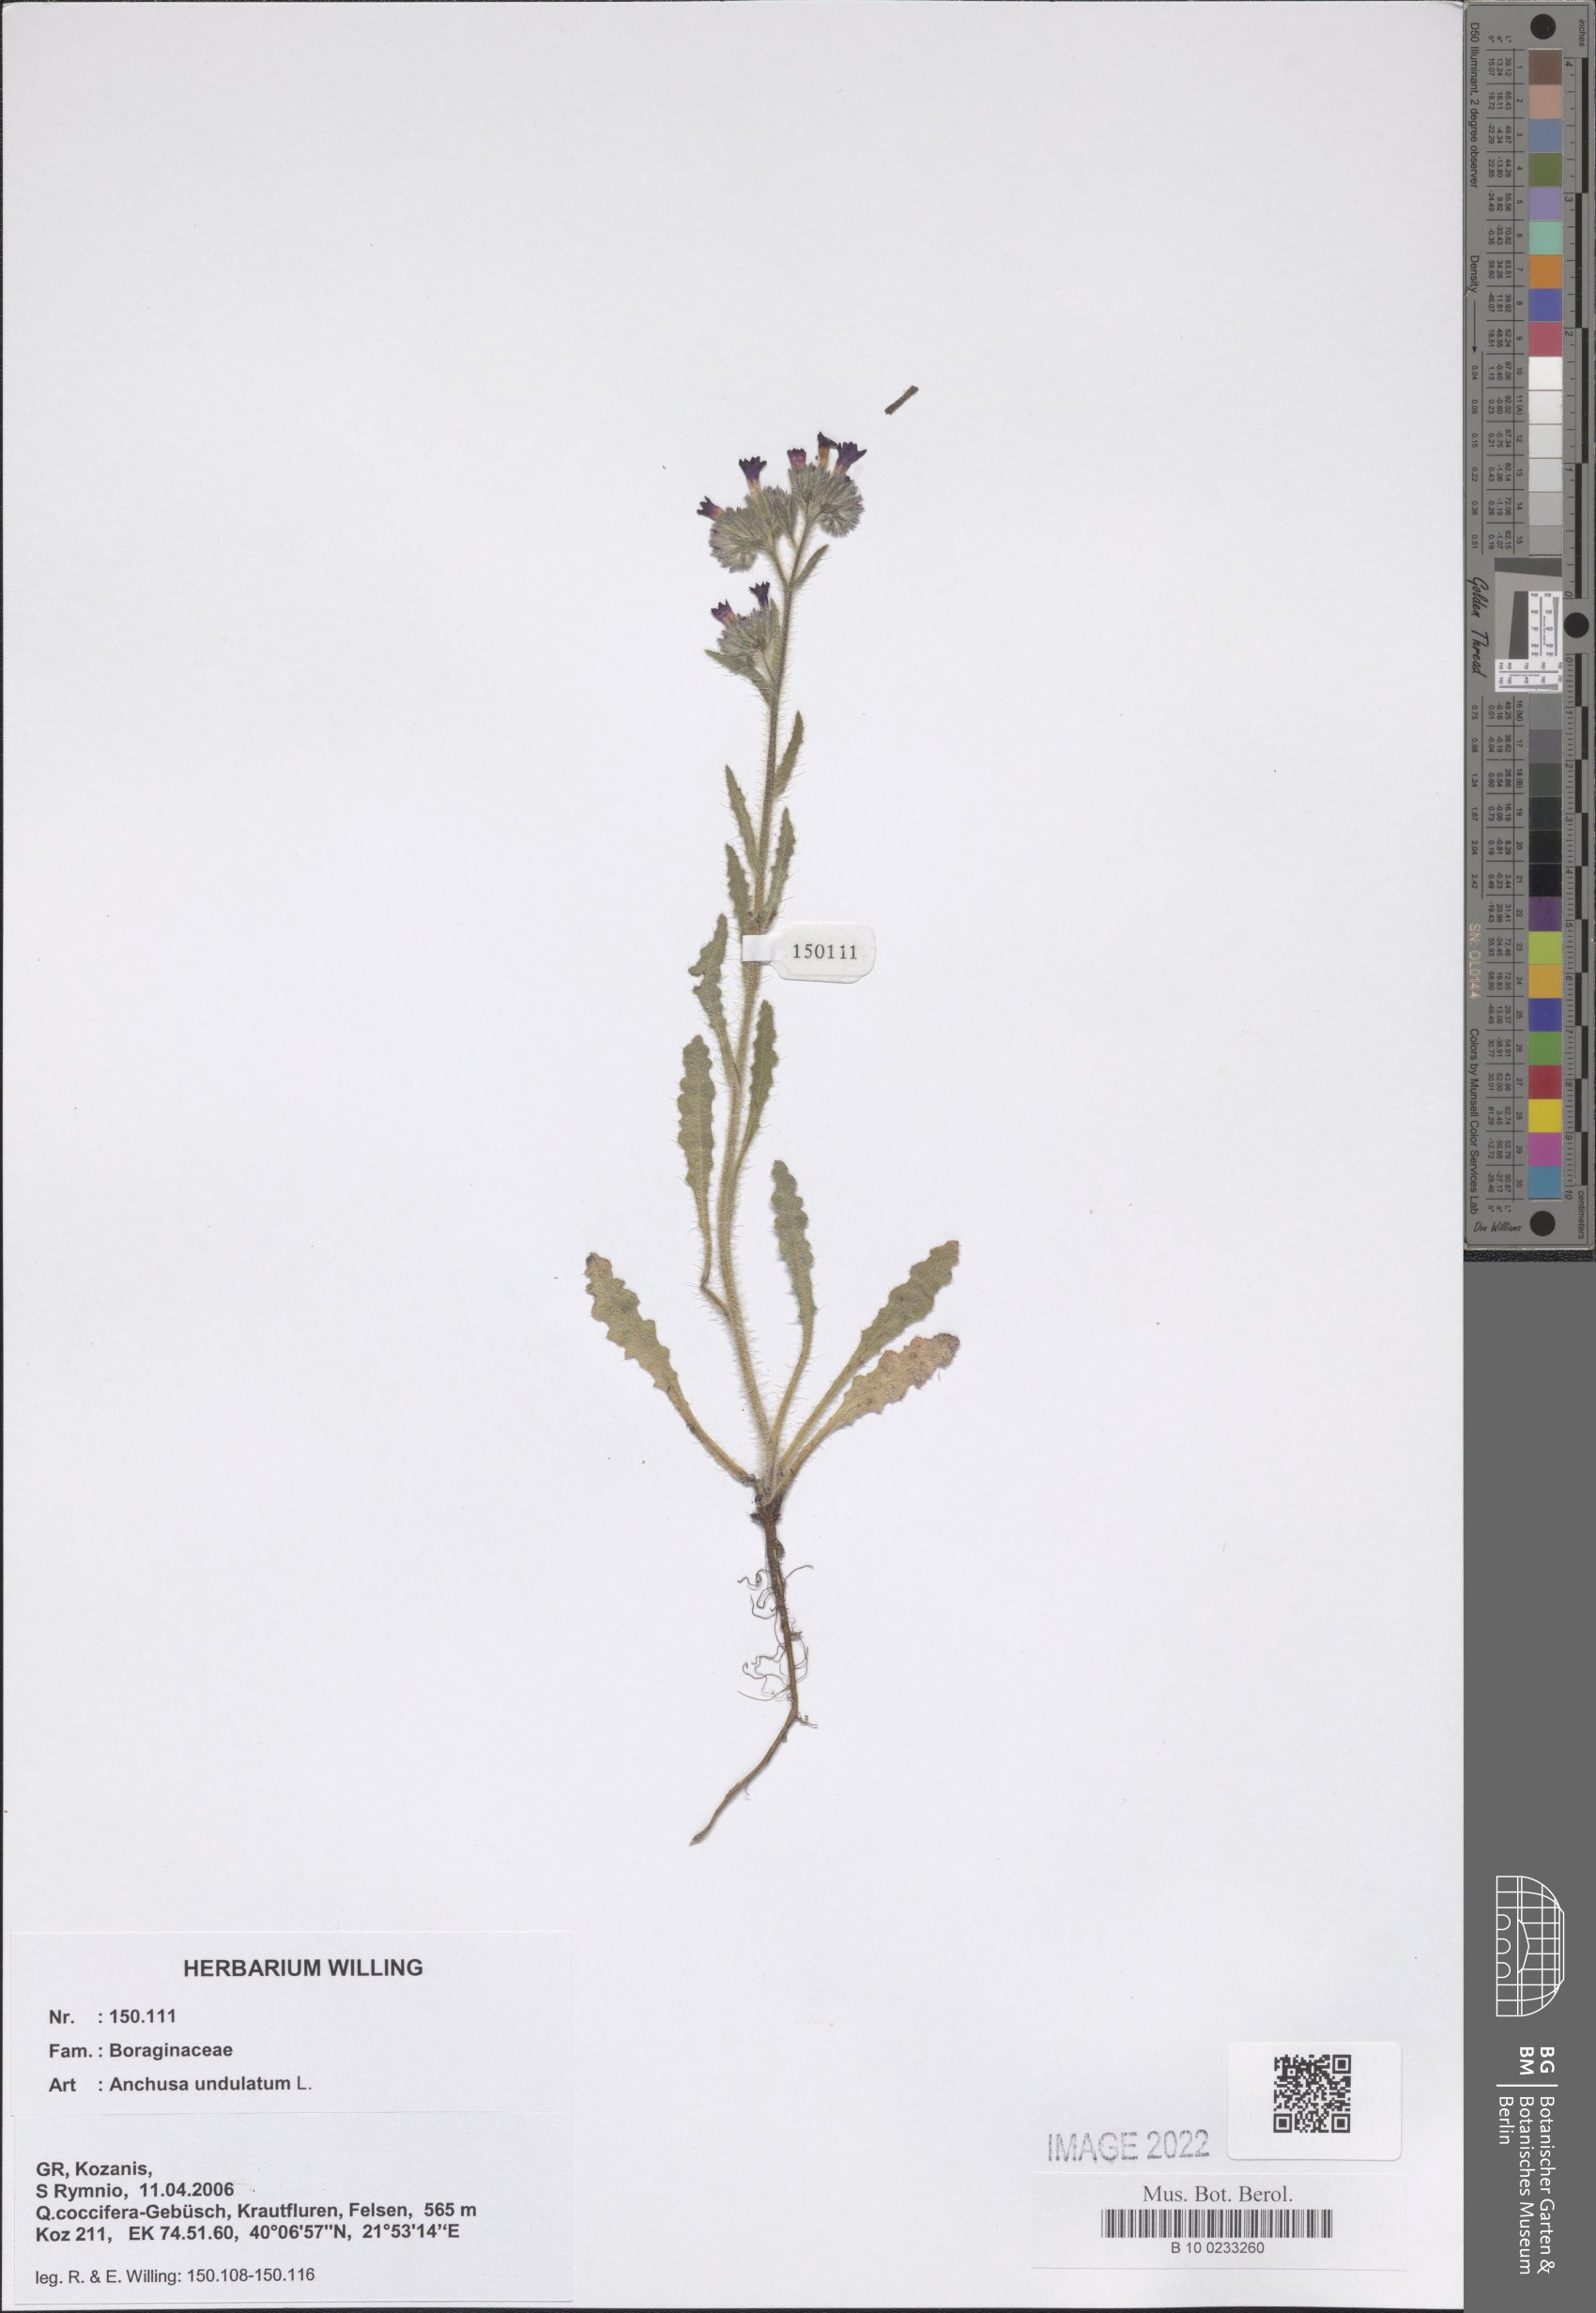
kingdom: Plantae
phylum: Tracheophyta
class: Magnoliopsida
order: Boraginales
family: Boraginaceae
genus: Anchusa
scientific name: Anchusa undulata
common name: Undulate alkanet
